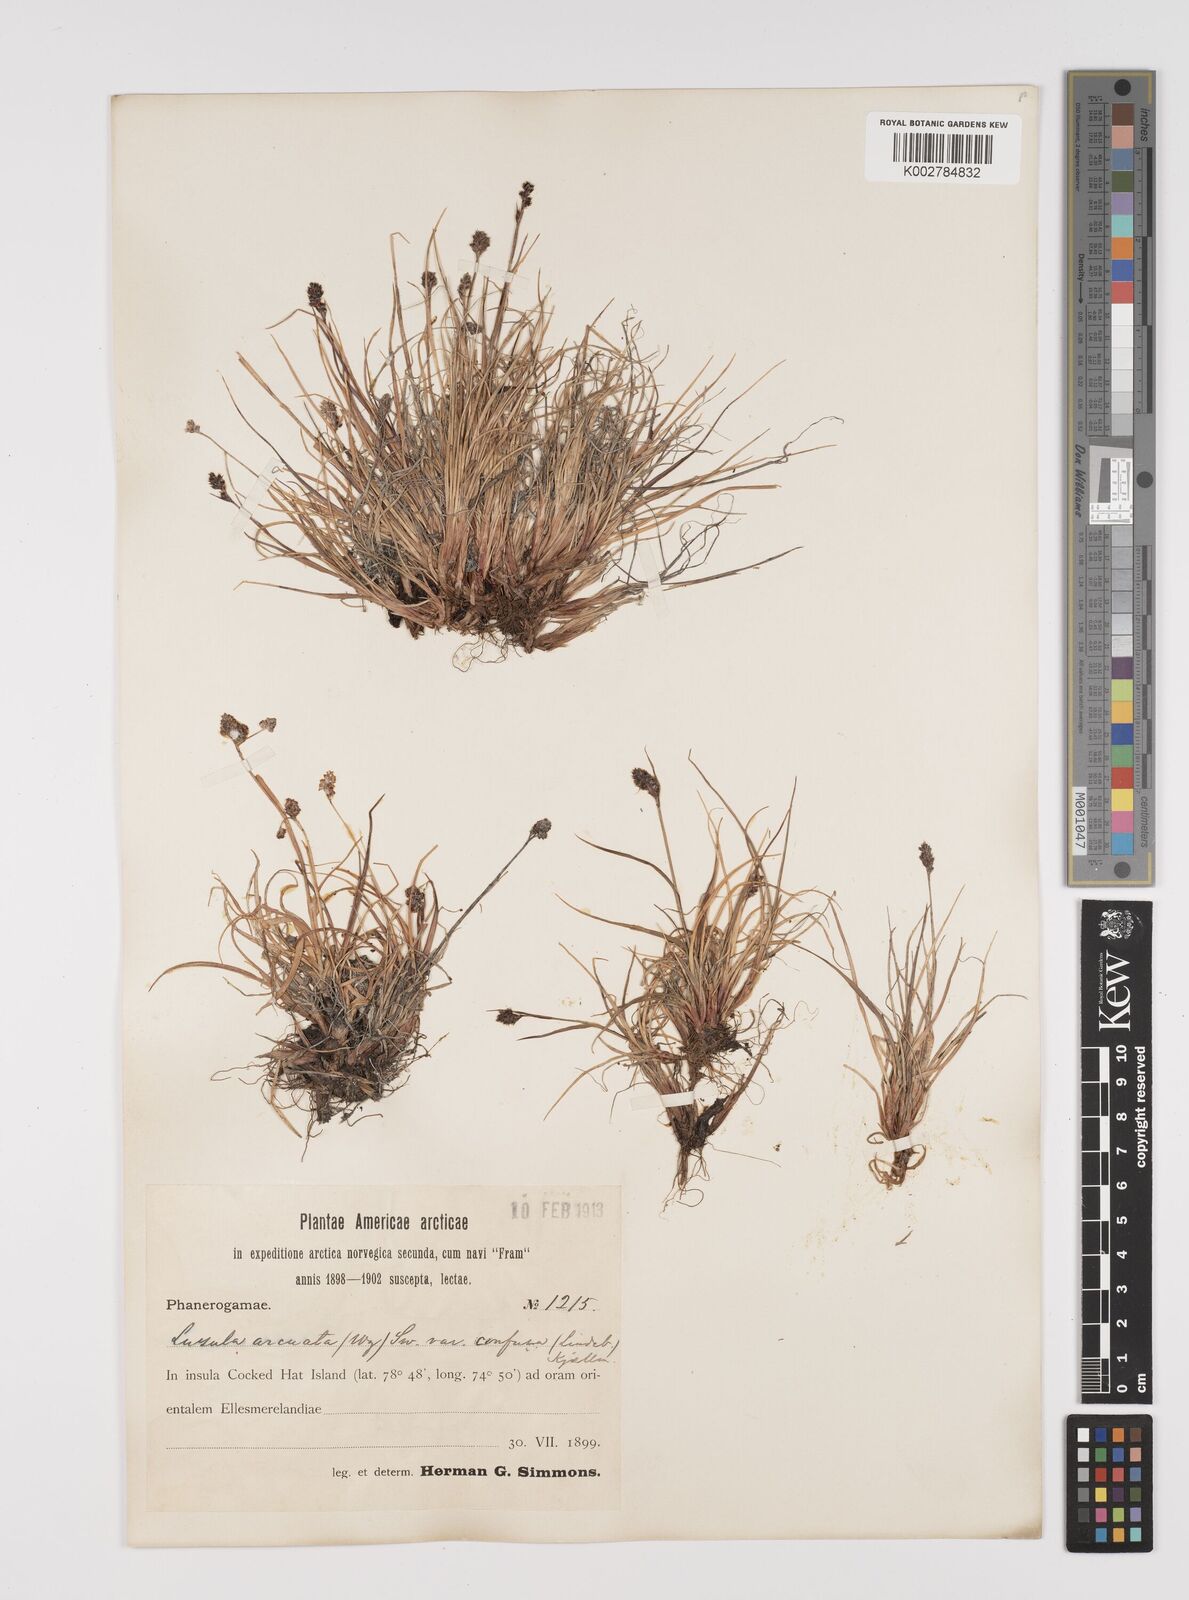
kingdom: Plantae
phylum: Tracheophyta
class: Liliopsida
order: Poales
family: Juncaceae
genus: Luzula
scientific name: Luzula confusa
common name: Northern wood rush
